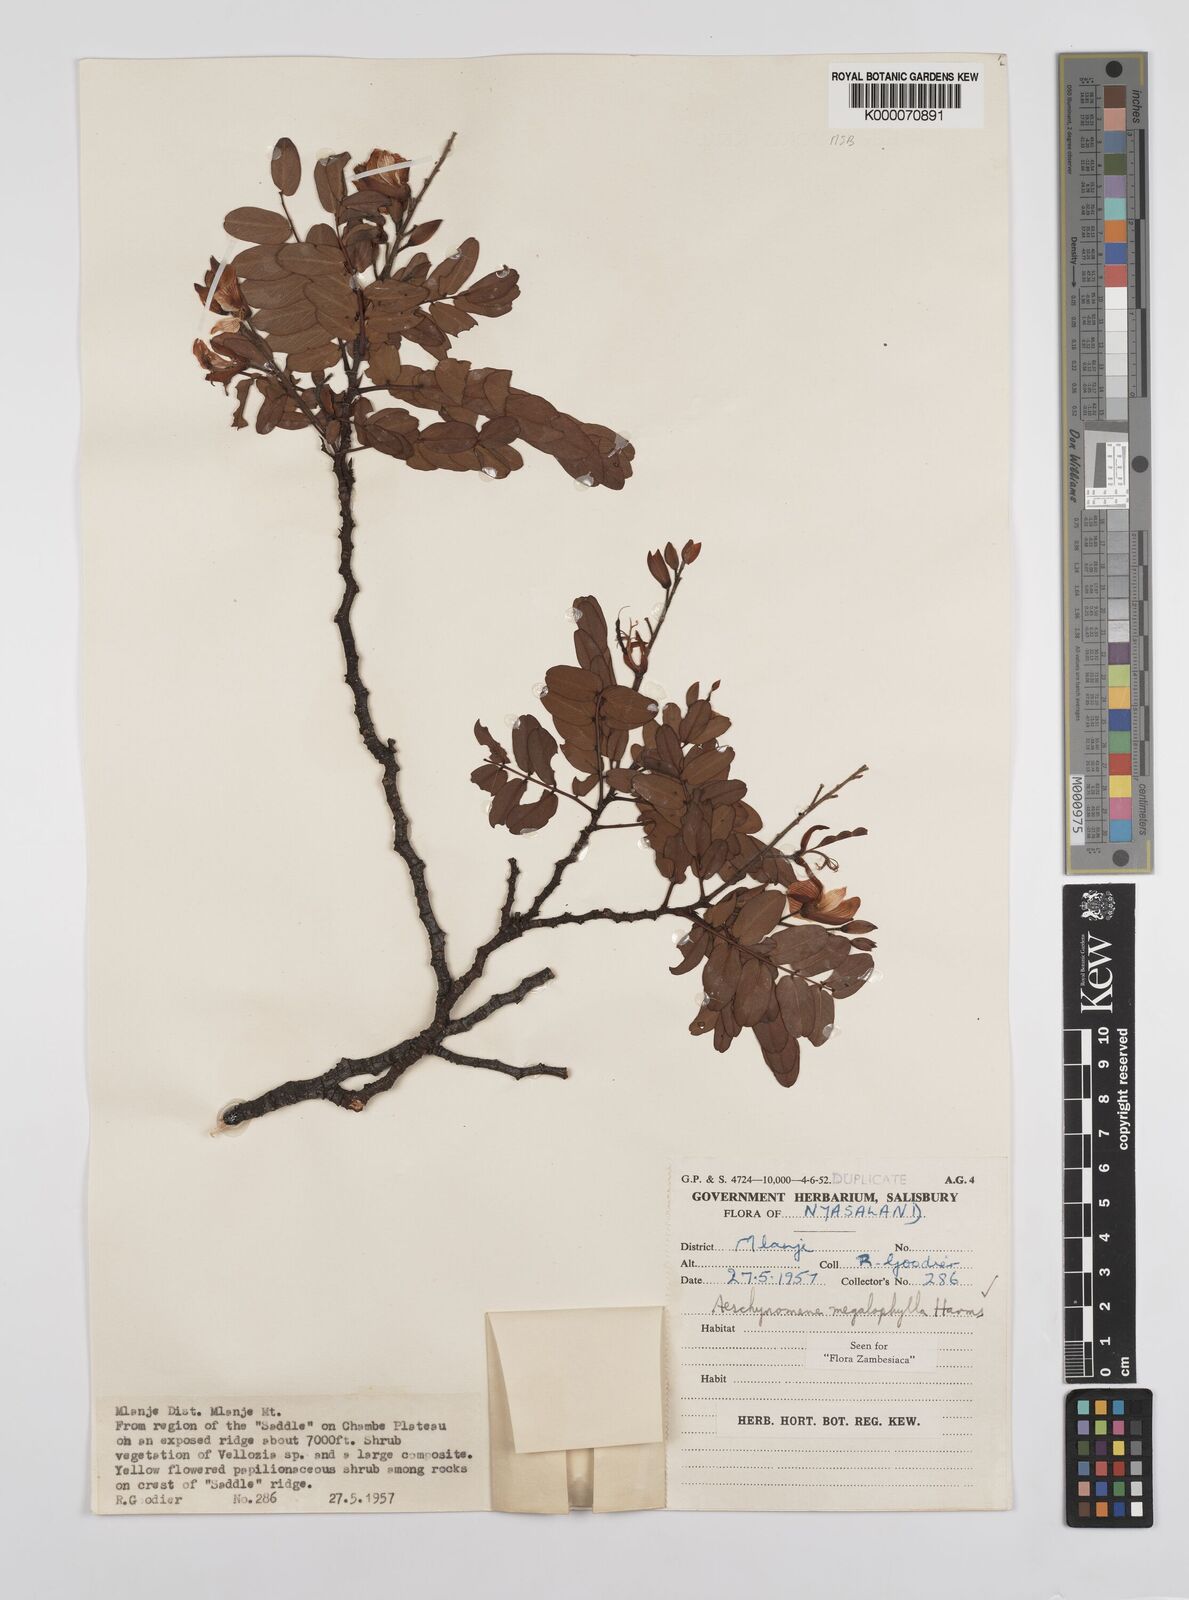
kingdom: Plantae
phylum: Tracheophyta
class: Magnoliopsida
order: Fabales
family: Fabaceae
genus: Aeschynomene
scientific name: Aeschynomene megalophylla
